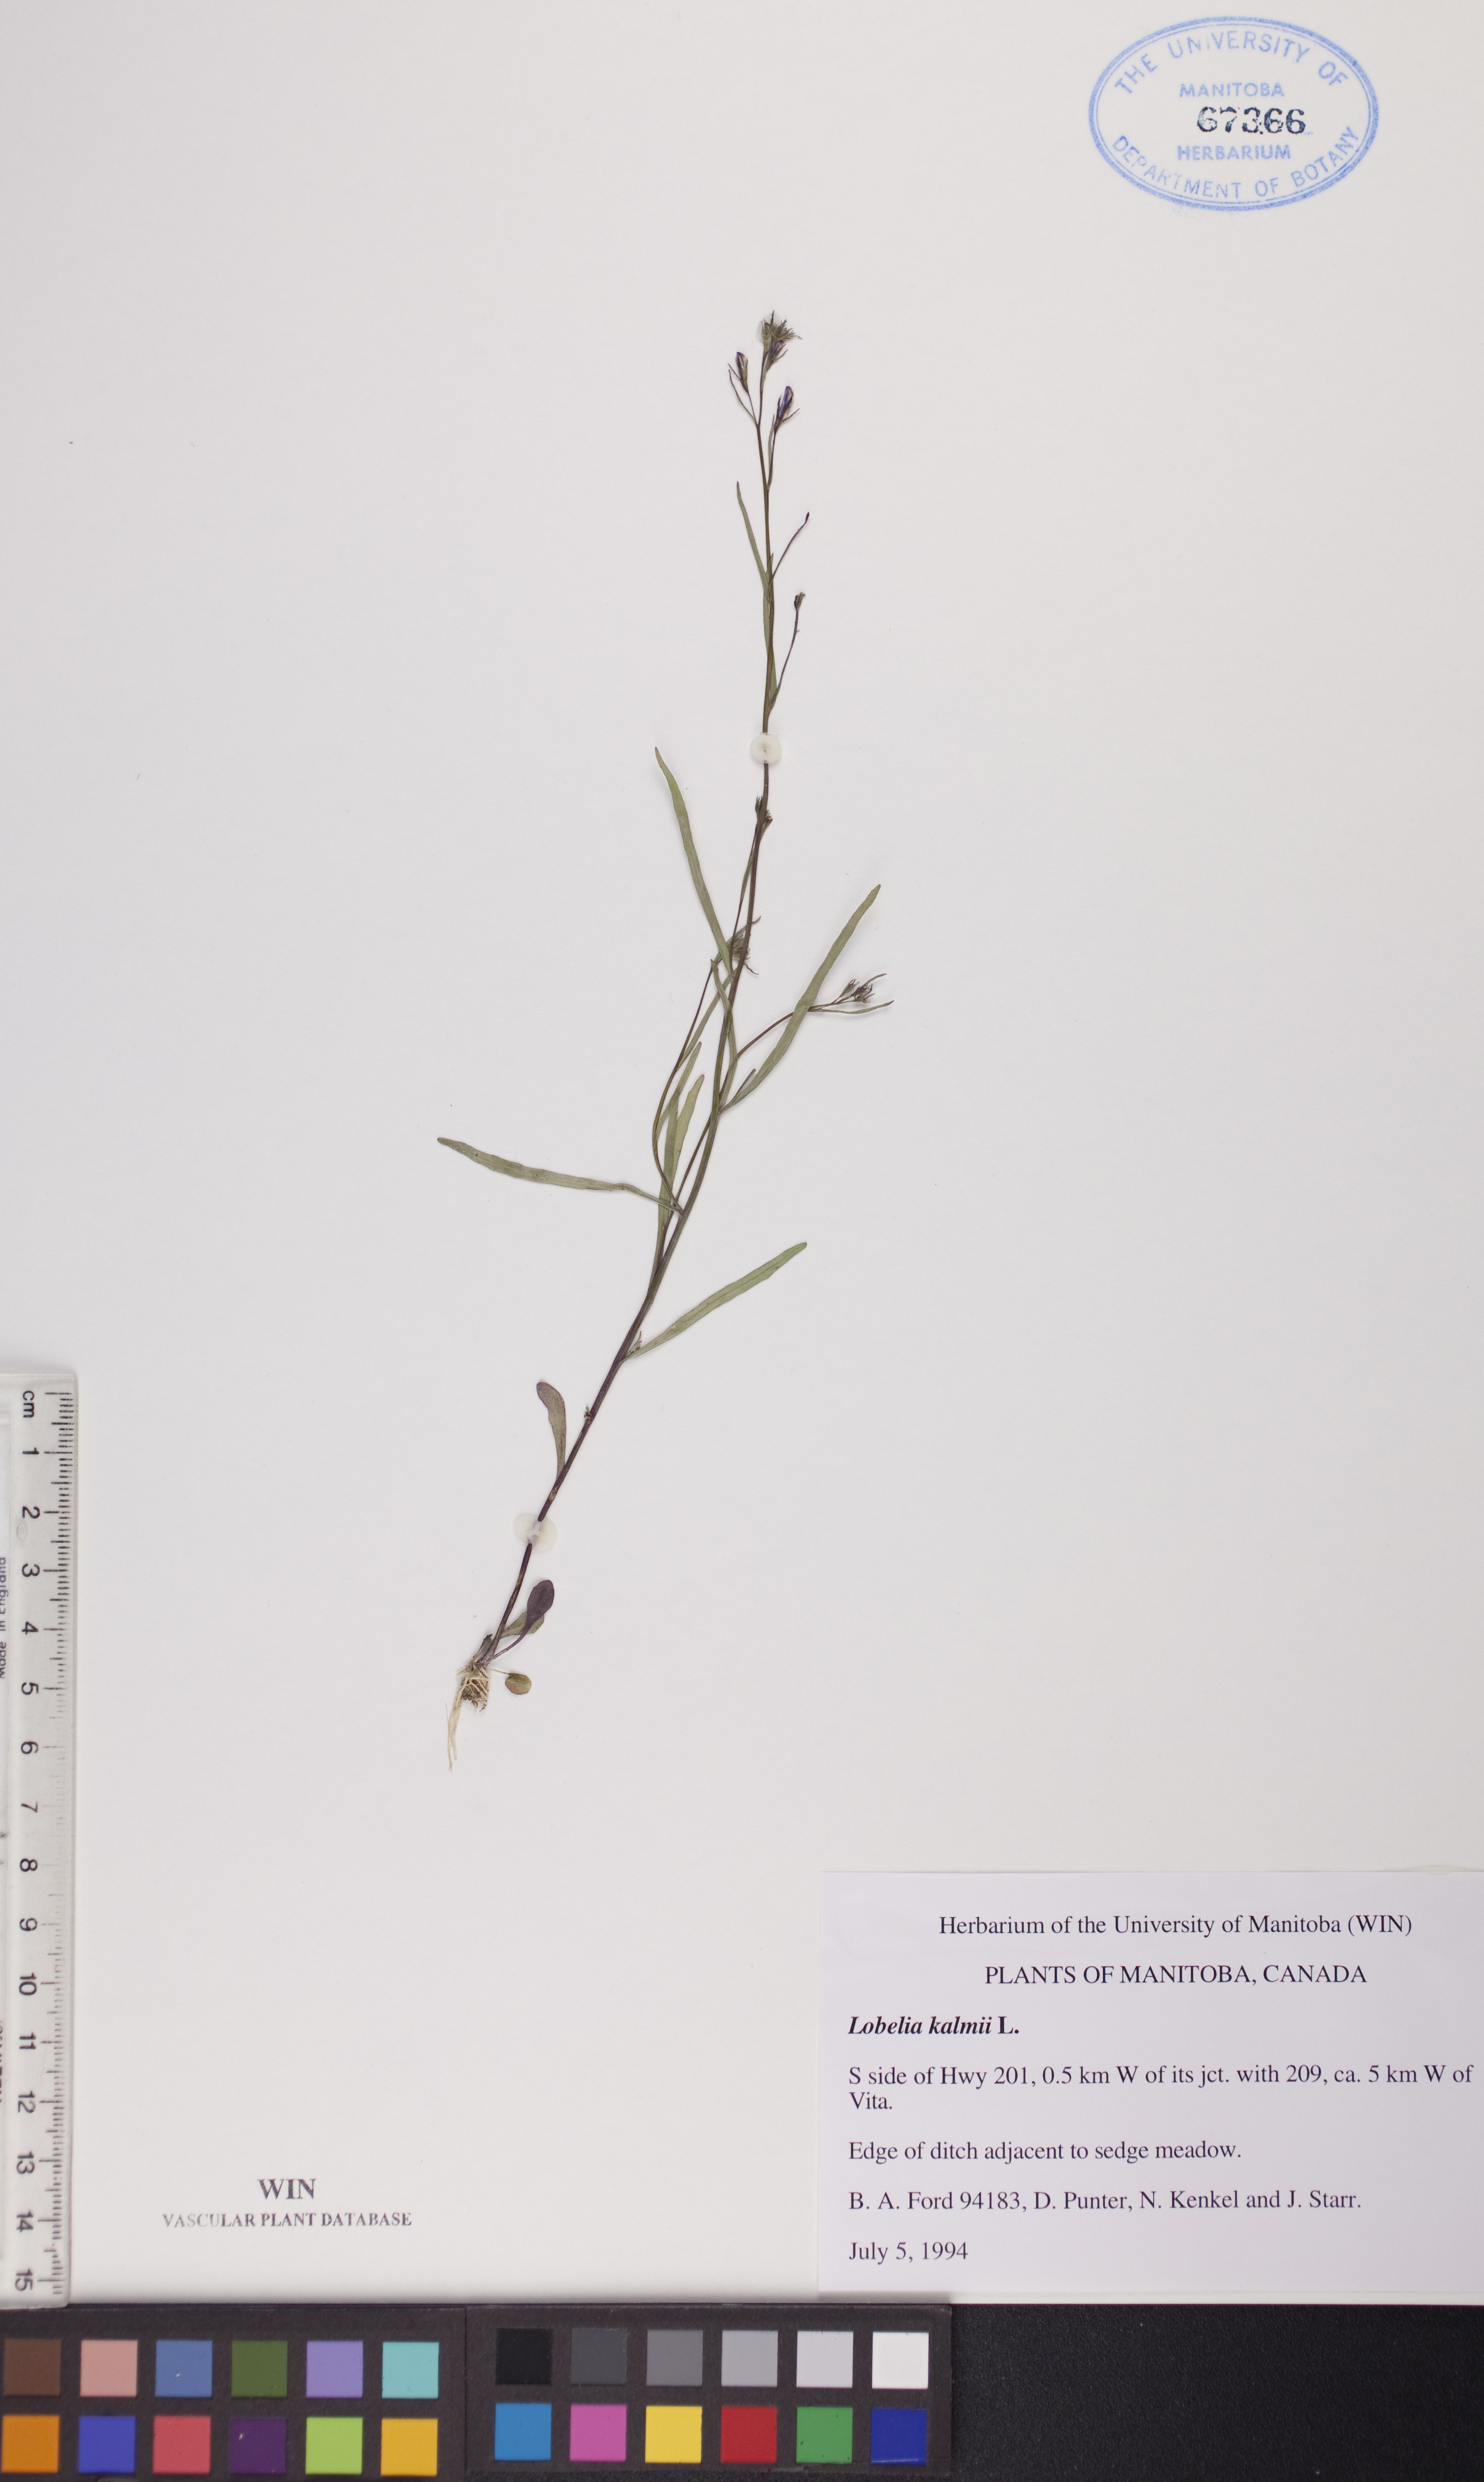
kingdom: Plantae
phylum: Tracheophyta
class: Magnoliopsida
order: Asterales
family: Campanulaceae
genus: Lobelia
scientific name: Lobelia kalmii
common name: Kalm's lobelia
